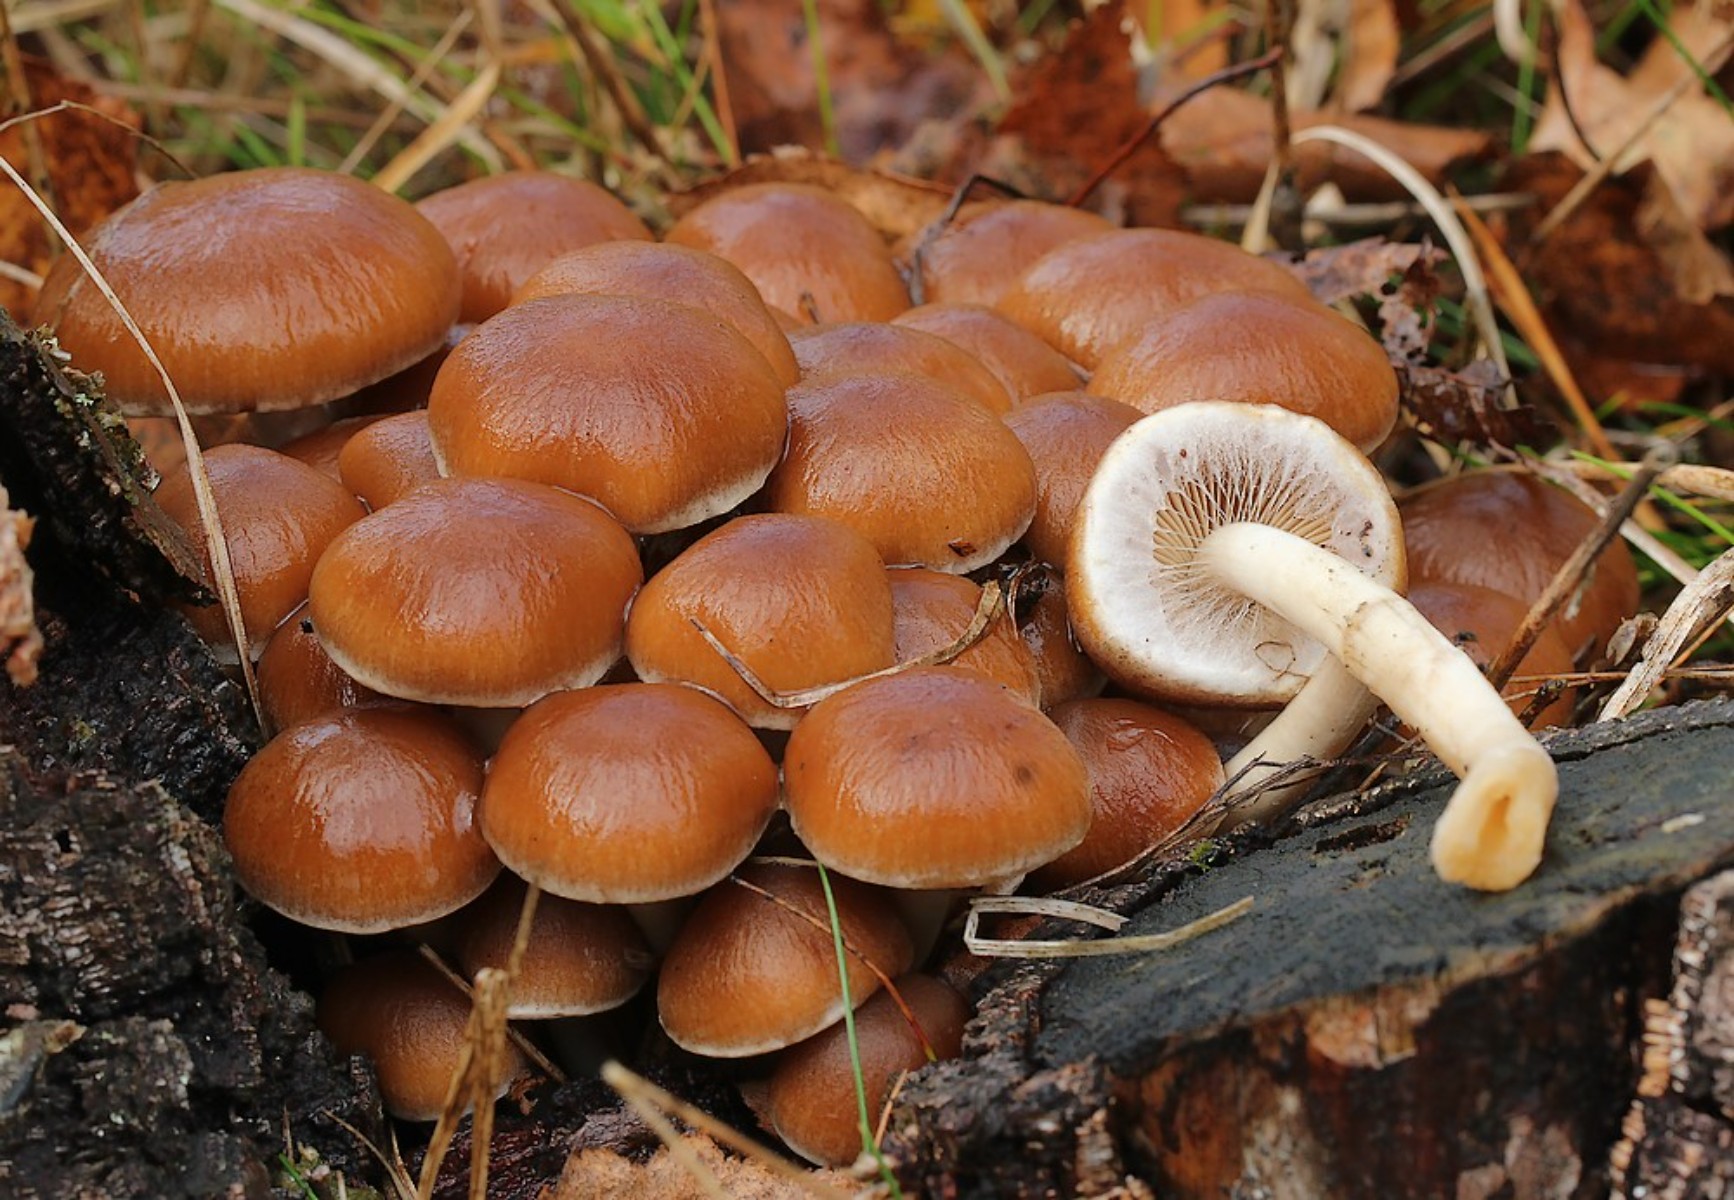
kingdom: Fungi
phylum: Basidiomycota
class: Agaricomycetes
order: Agaricales
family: Psathyrellaceae
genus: Psathyrella
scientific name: Psathyrella piluliformis
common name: lysstokket mørkhat
